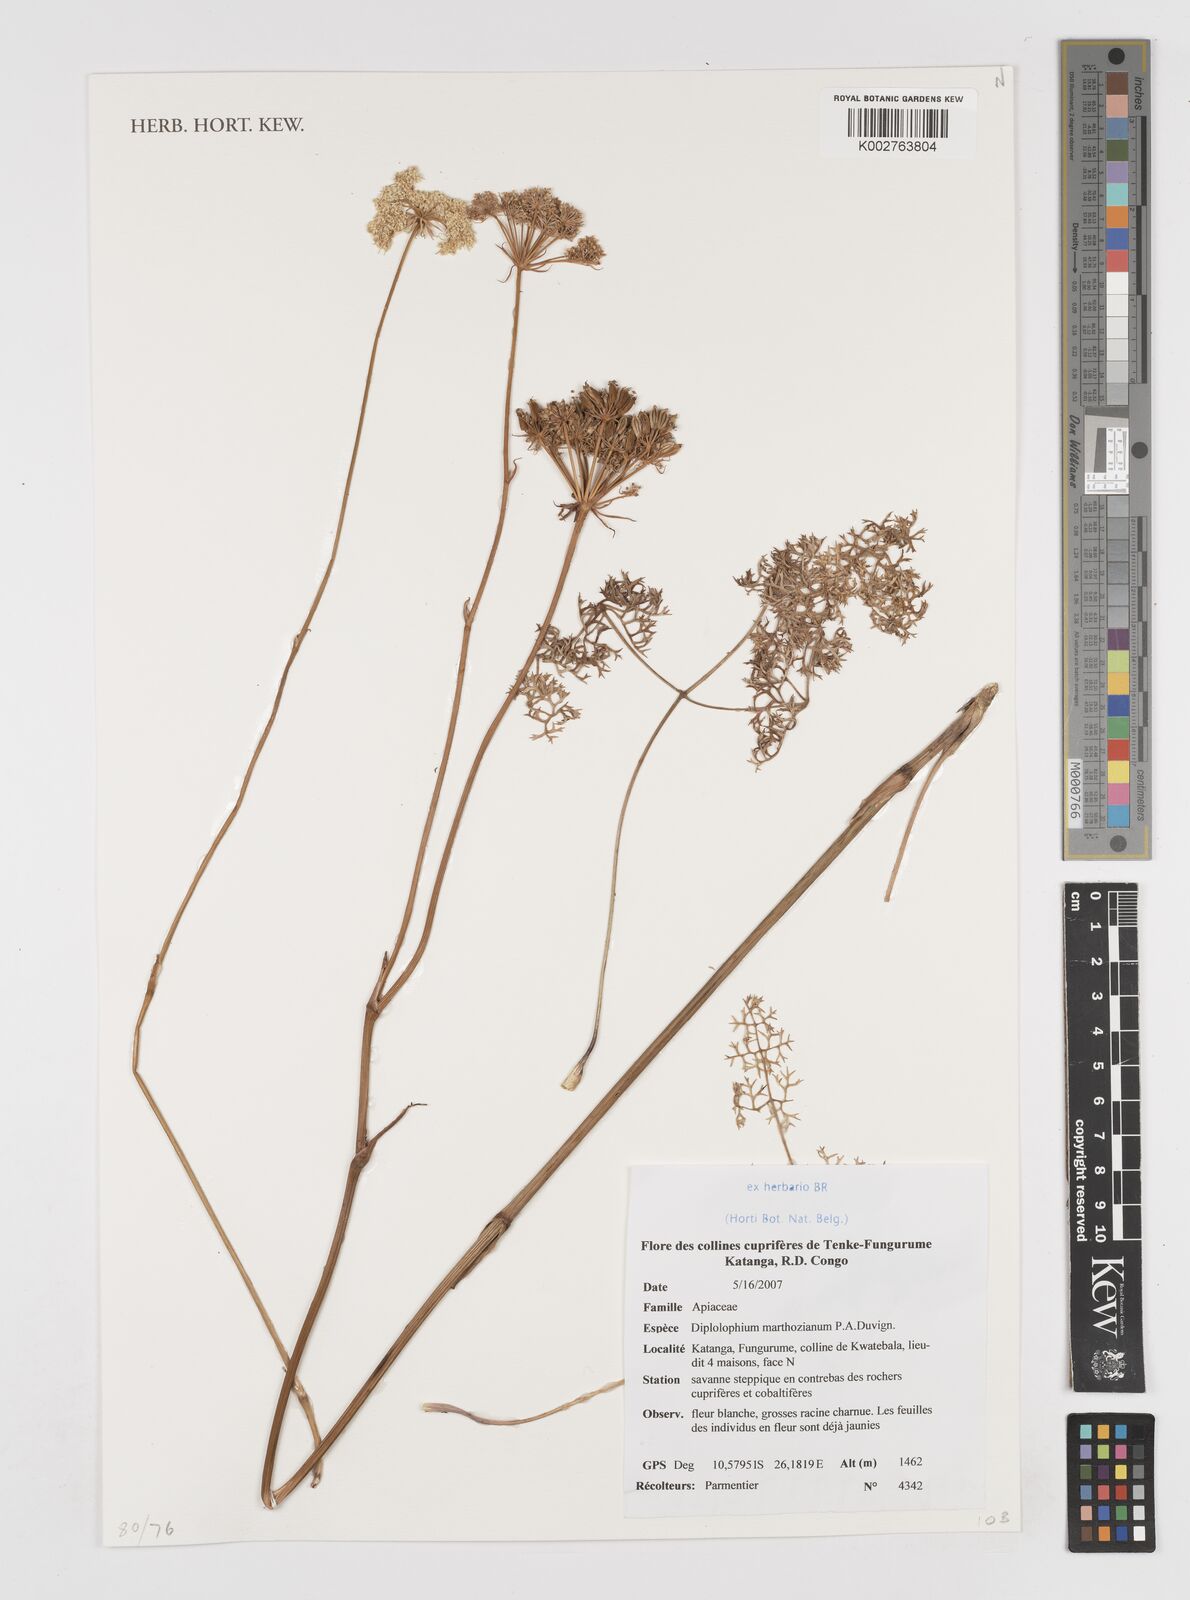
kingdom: Plantae
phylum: Tracheophyta
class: Magnoliopsida
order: Apiales
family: Apiaceae
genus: Physotrichia
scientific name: Physotrichia atropurpurea
